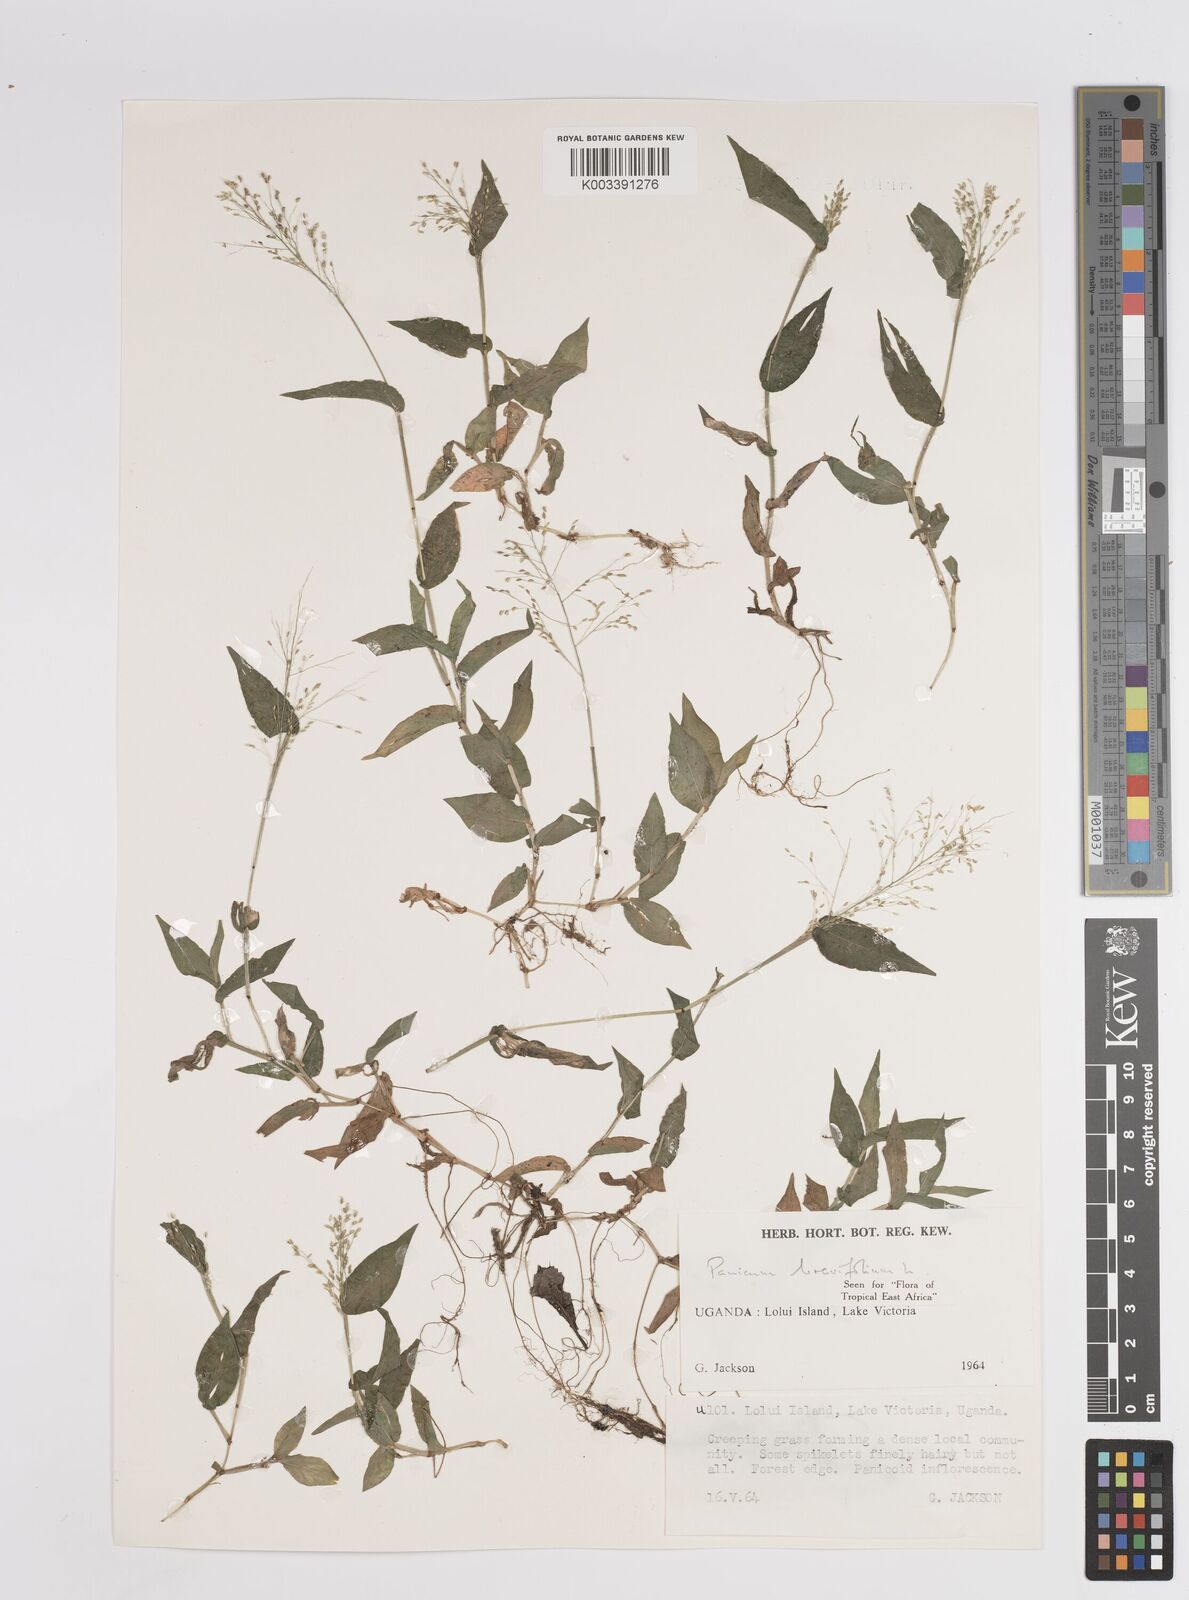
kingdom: Plantae
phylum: Tracheophyta
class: Liliopsida
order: Poales
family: Poaceae
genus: Panicum
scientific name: Panicum brevifolium
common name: Shortleaf panic grass
